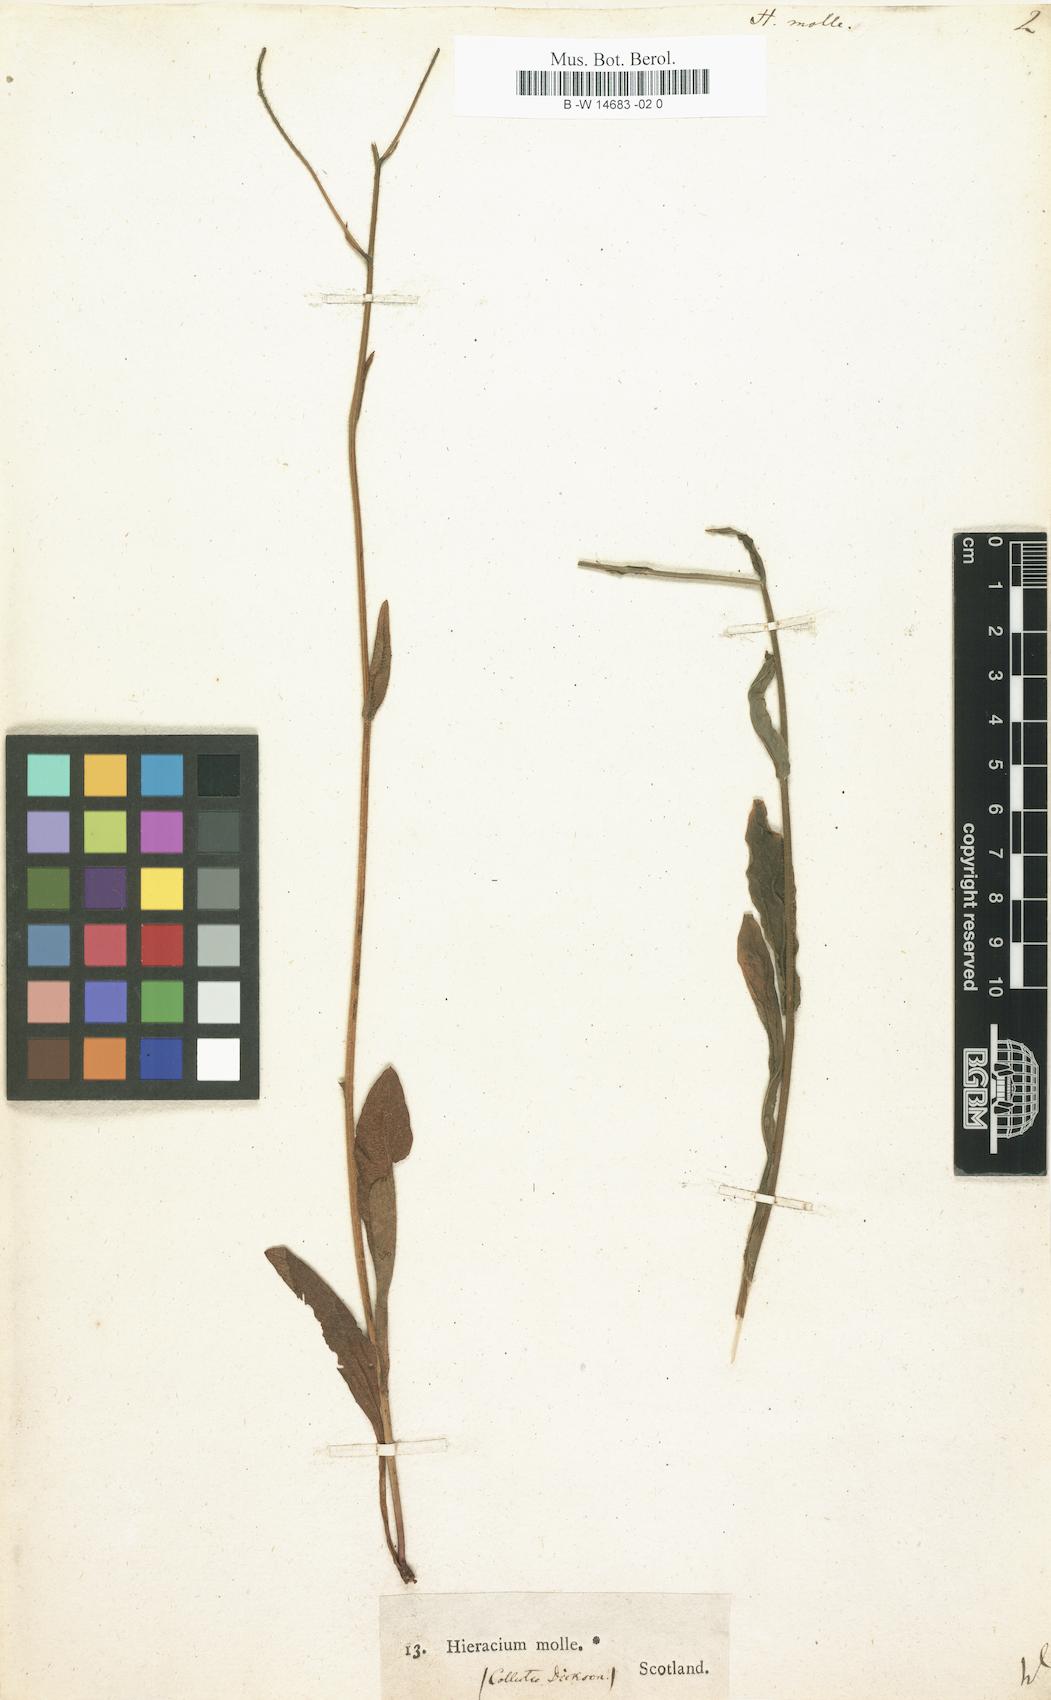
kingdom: Plantae
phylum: Tracheophyta
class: Magnoliopsida
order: Asterales
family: Asteraceae
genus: Hieracium
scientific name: Hieracium molle
